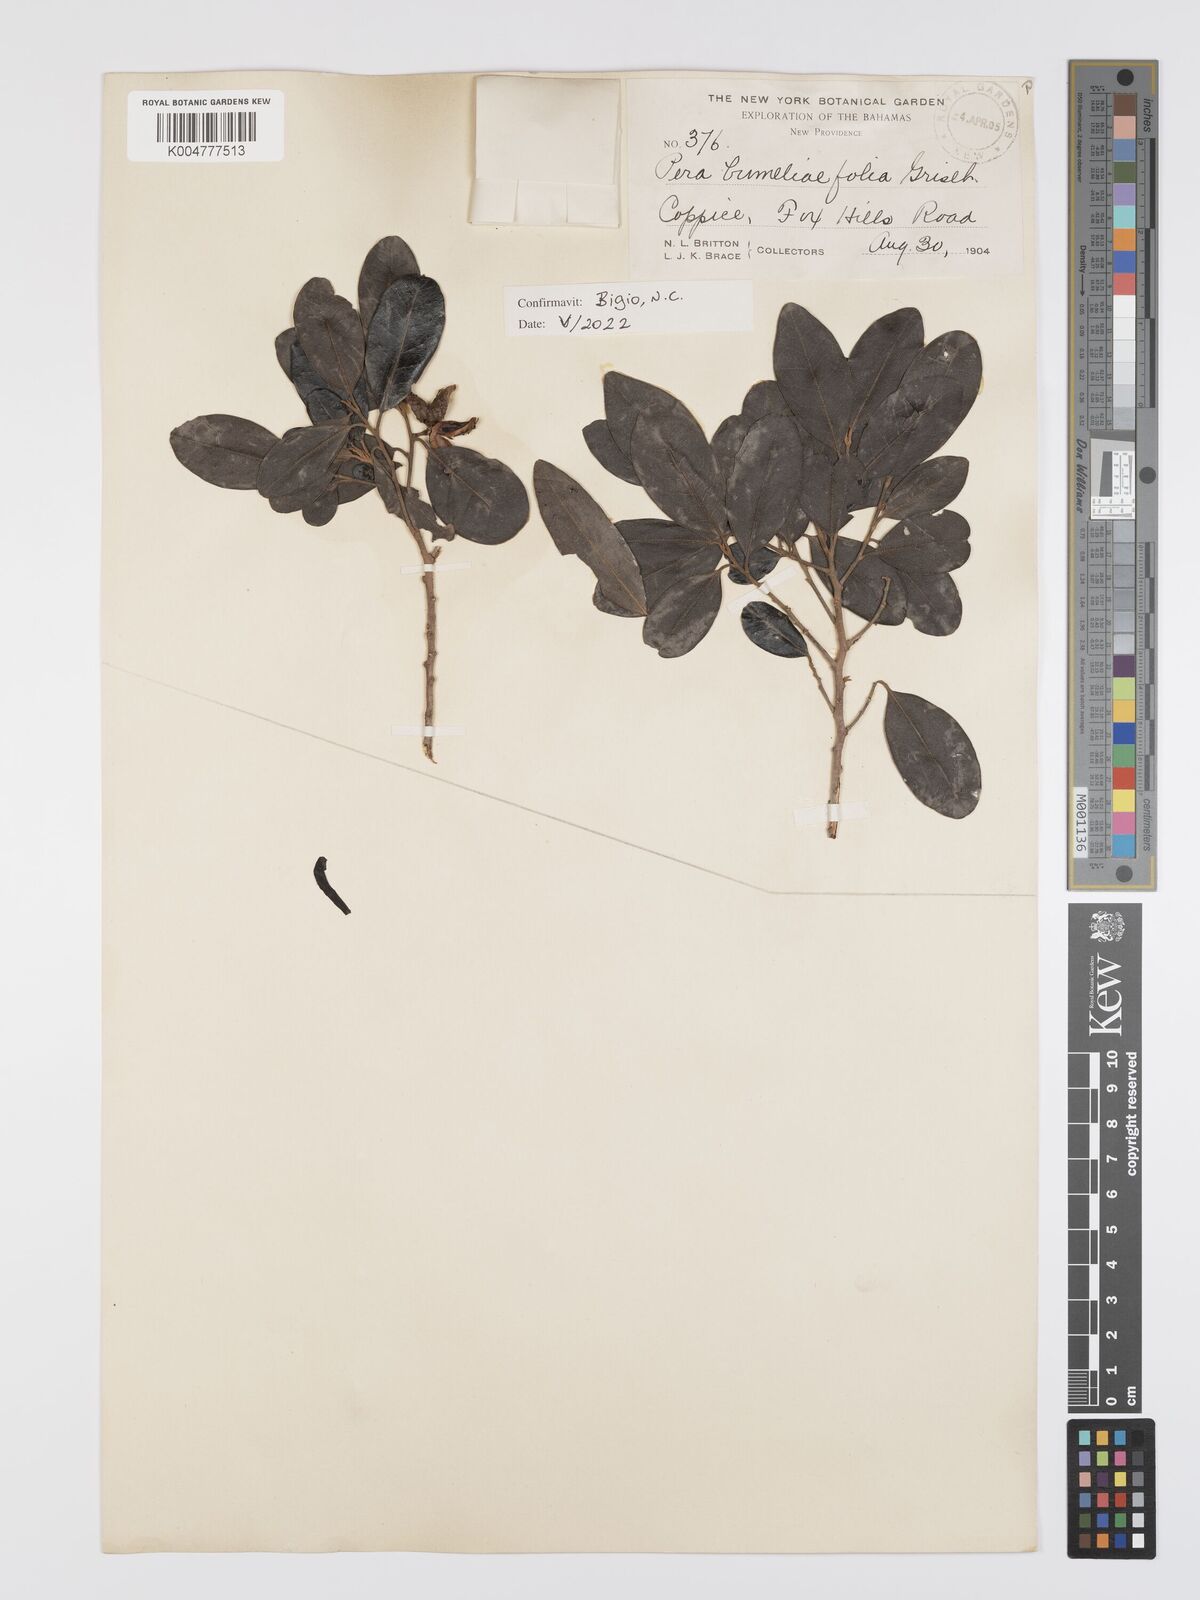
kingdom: Plantae
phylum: Tracheophyta
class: Magnoliopsida
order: Malpighiales
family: Peraceae
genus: Pera
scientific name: Pera
